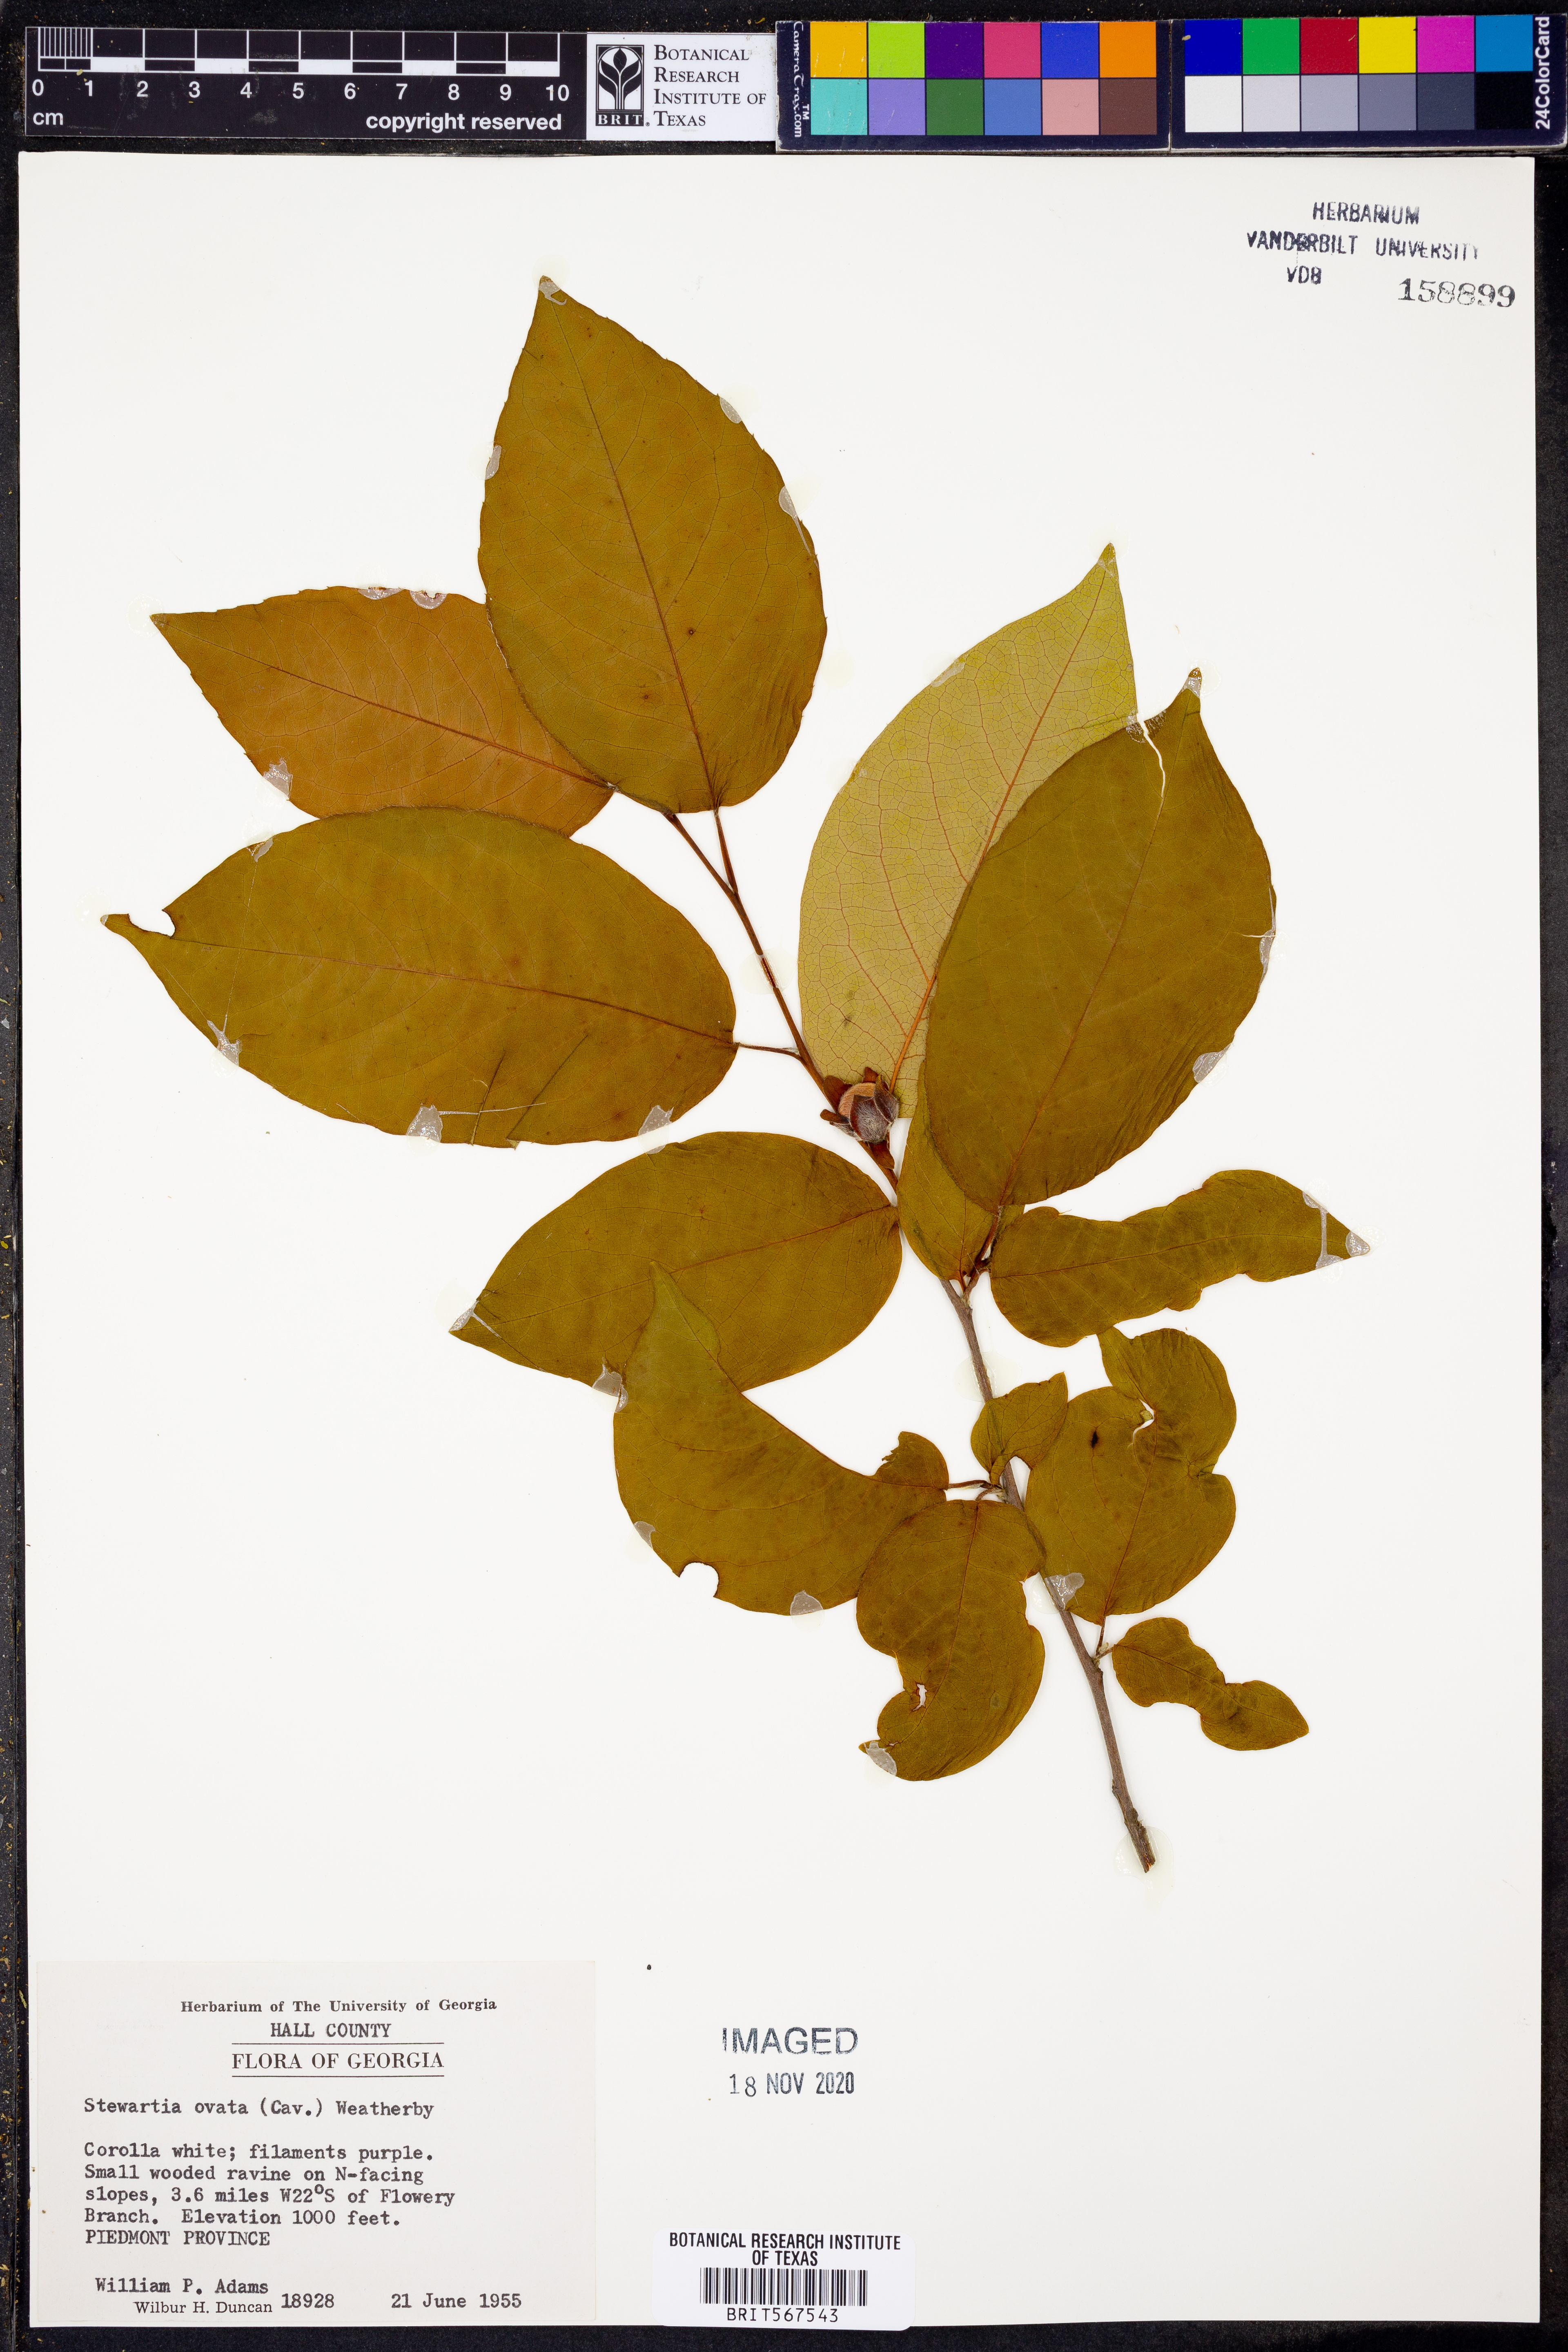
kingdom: Plantae
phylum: Tracheophyta
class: Magnoliopsida
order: Ericales
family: Theaceae
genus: Stewartia
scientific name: Stewartia ovata
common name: Mountain camellia
